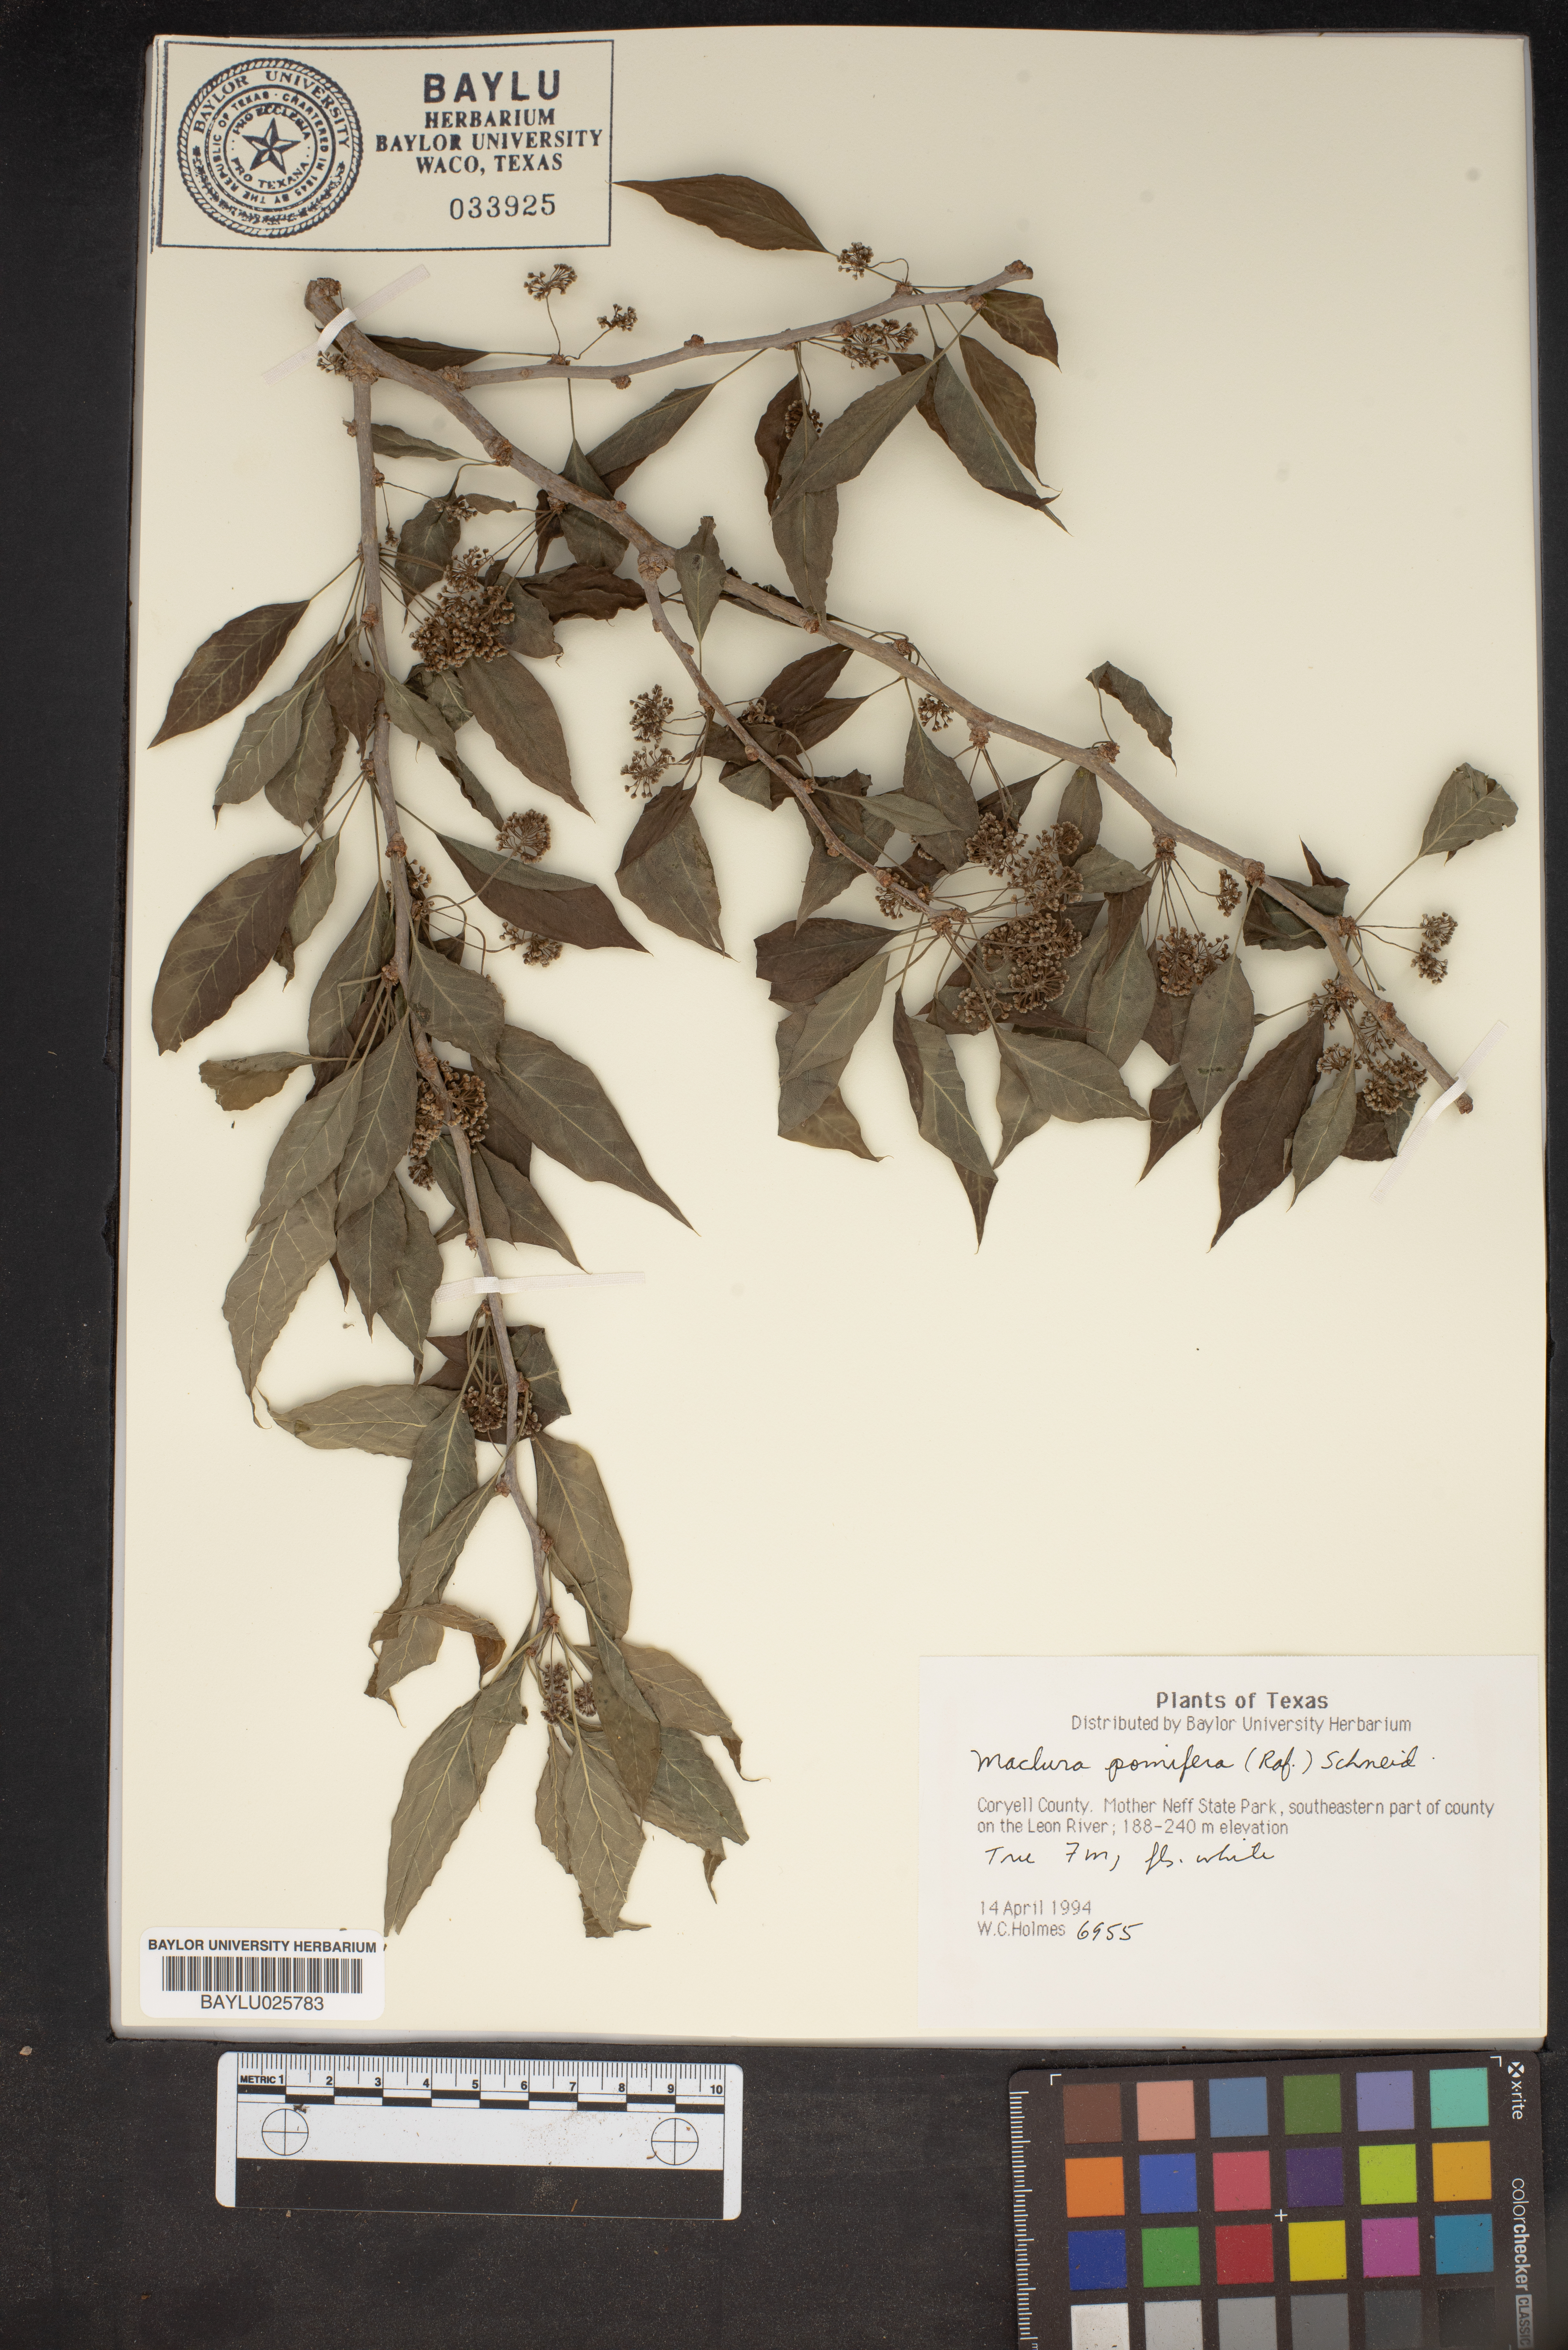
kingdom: Plantae
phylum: Tracheophyta
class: Magnoliopsida
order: Rosales
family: Moraceae
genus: Maclura
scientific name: Maclura pomifera
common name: Osage-orange
